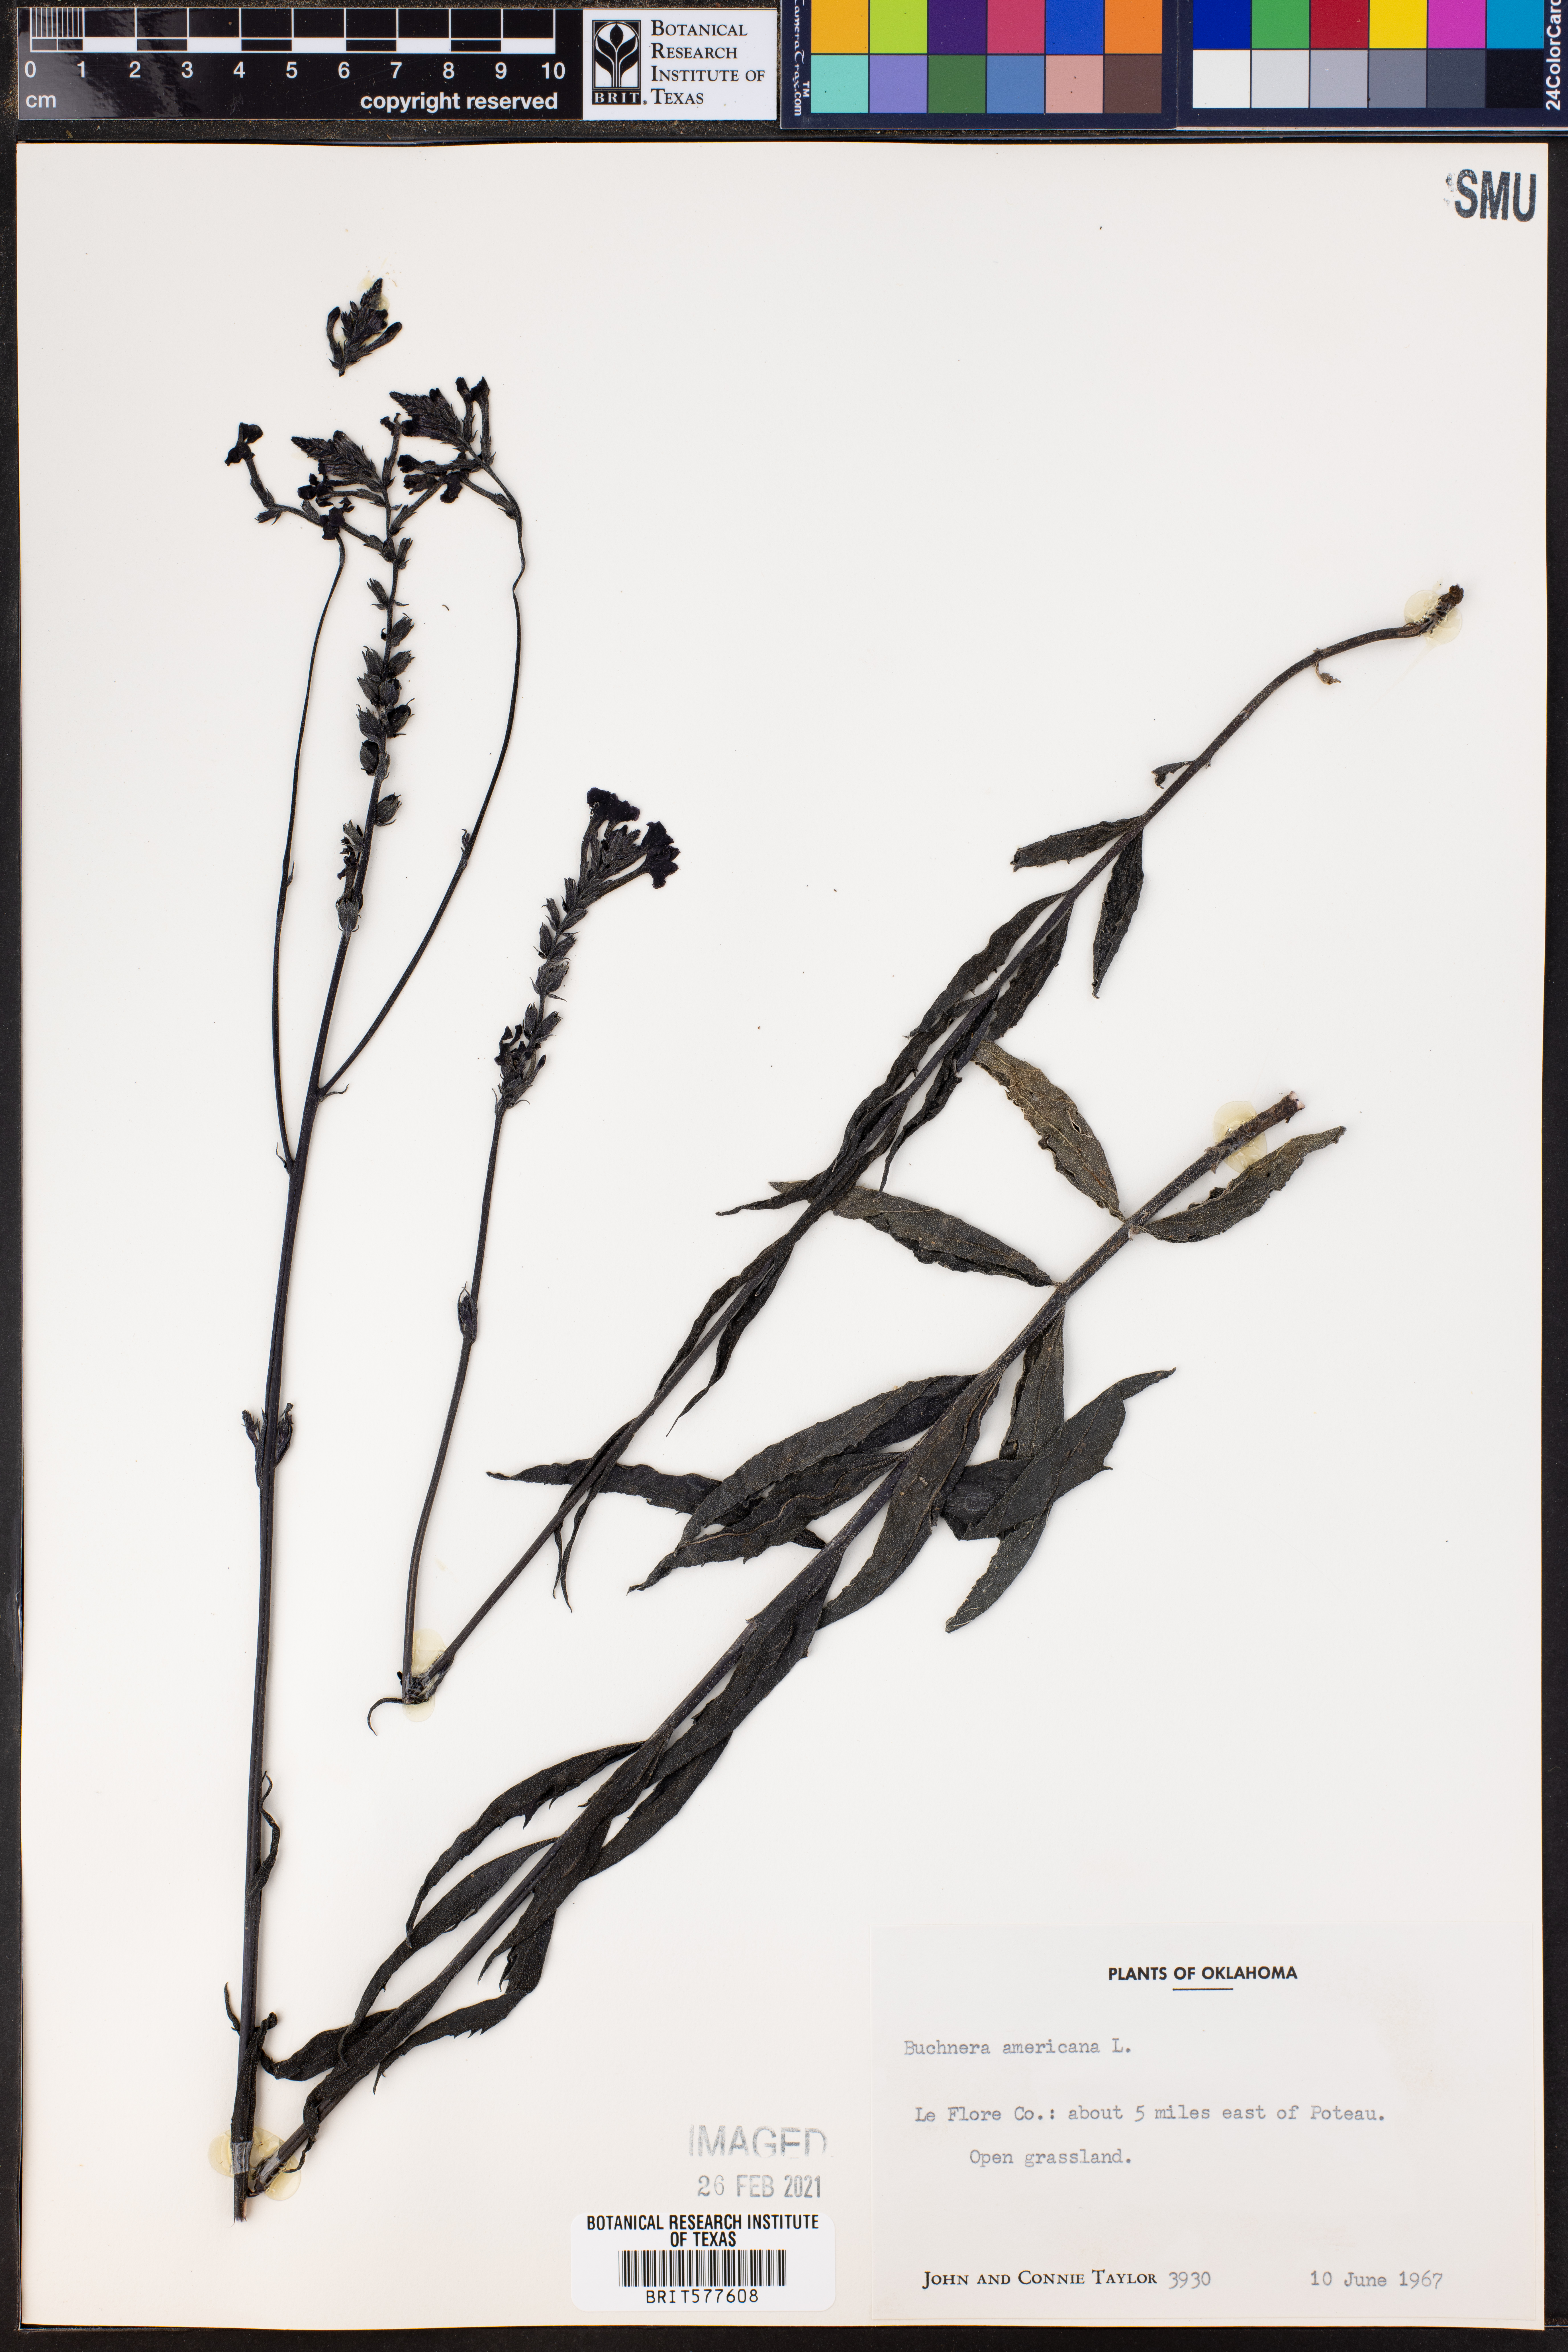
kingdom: Plantae
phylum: Tracheophyta
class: Magnoliopsida
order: Lamiales
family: Orobanchaceae
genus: Buchnera
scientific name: Buchnera americana
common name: American bluehearts
